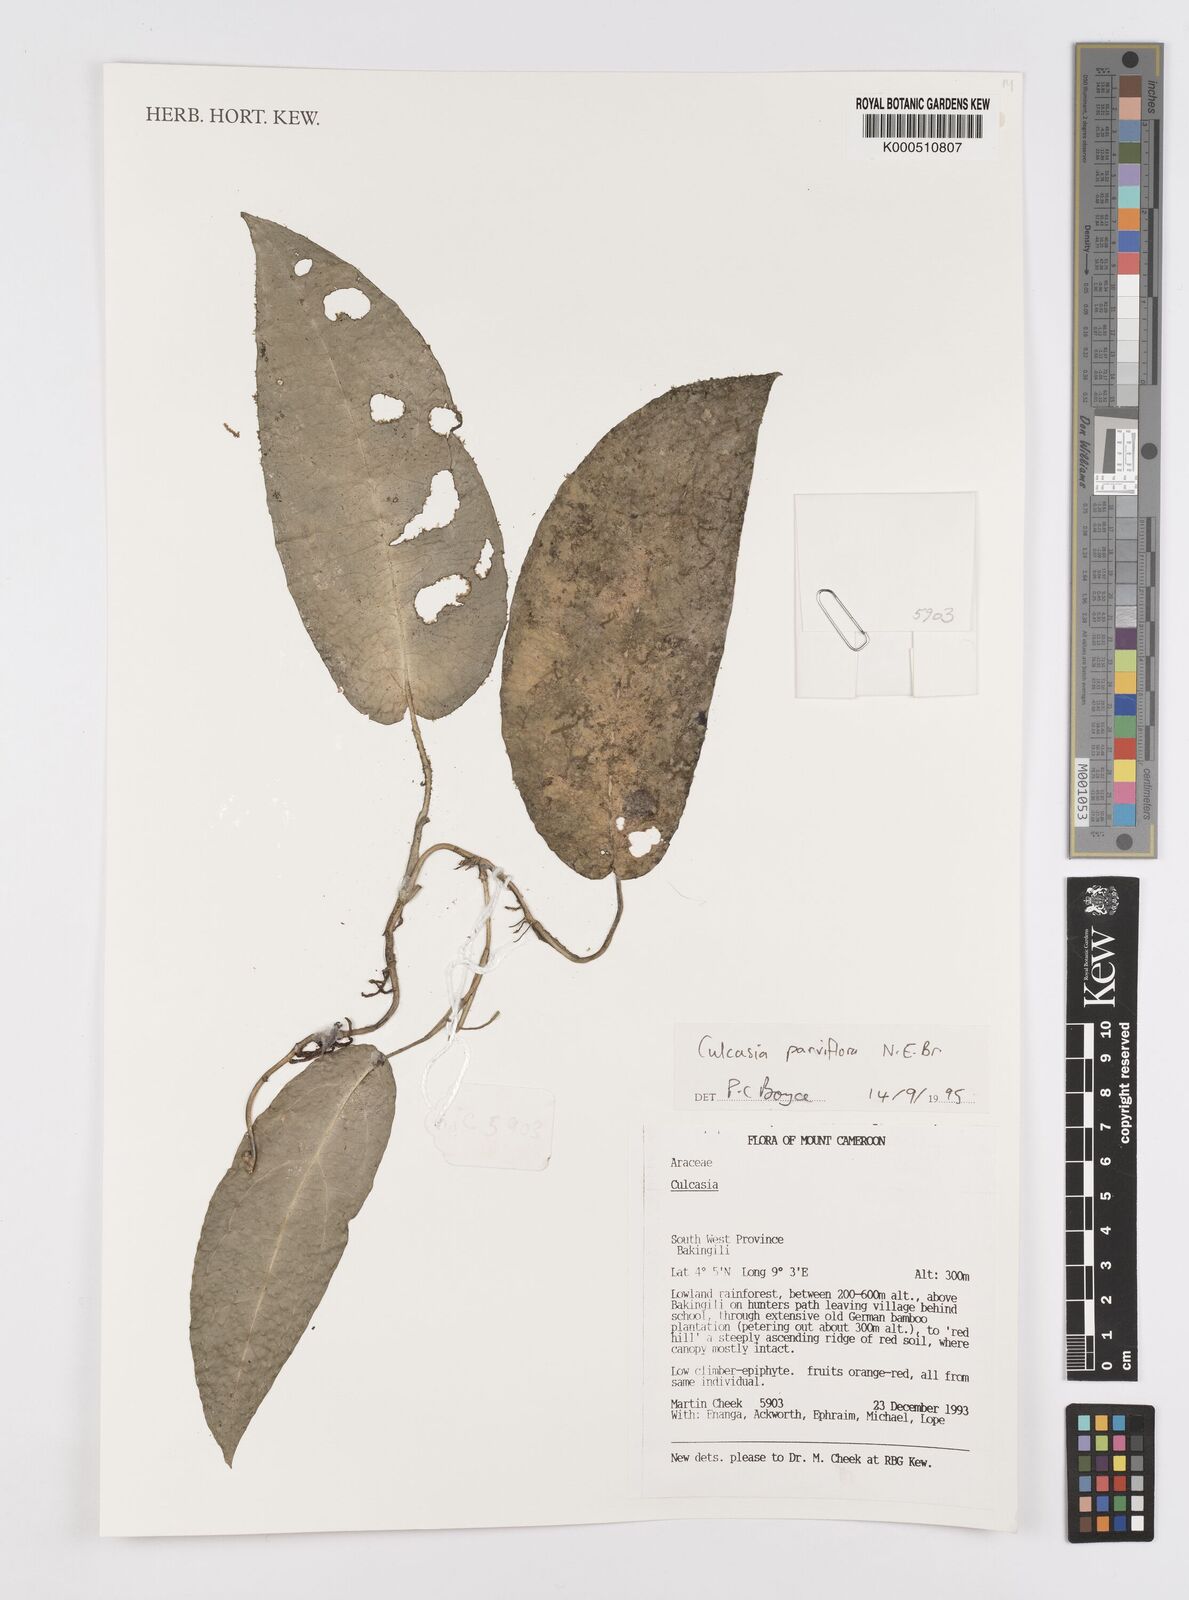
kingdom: Plantae
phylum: Tracheophyta
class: Liliopsida
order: Alismatales
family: Araceae
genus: Culcasia
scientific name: Culcasia parviflora
